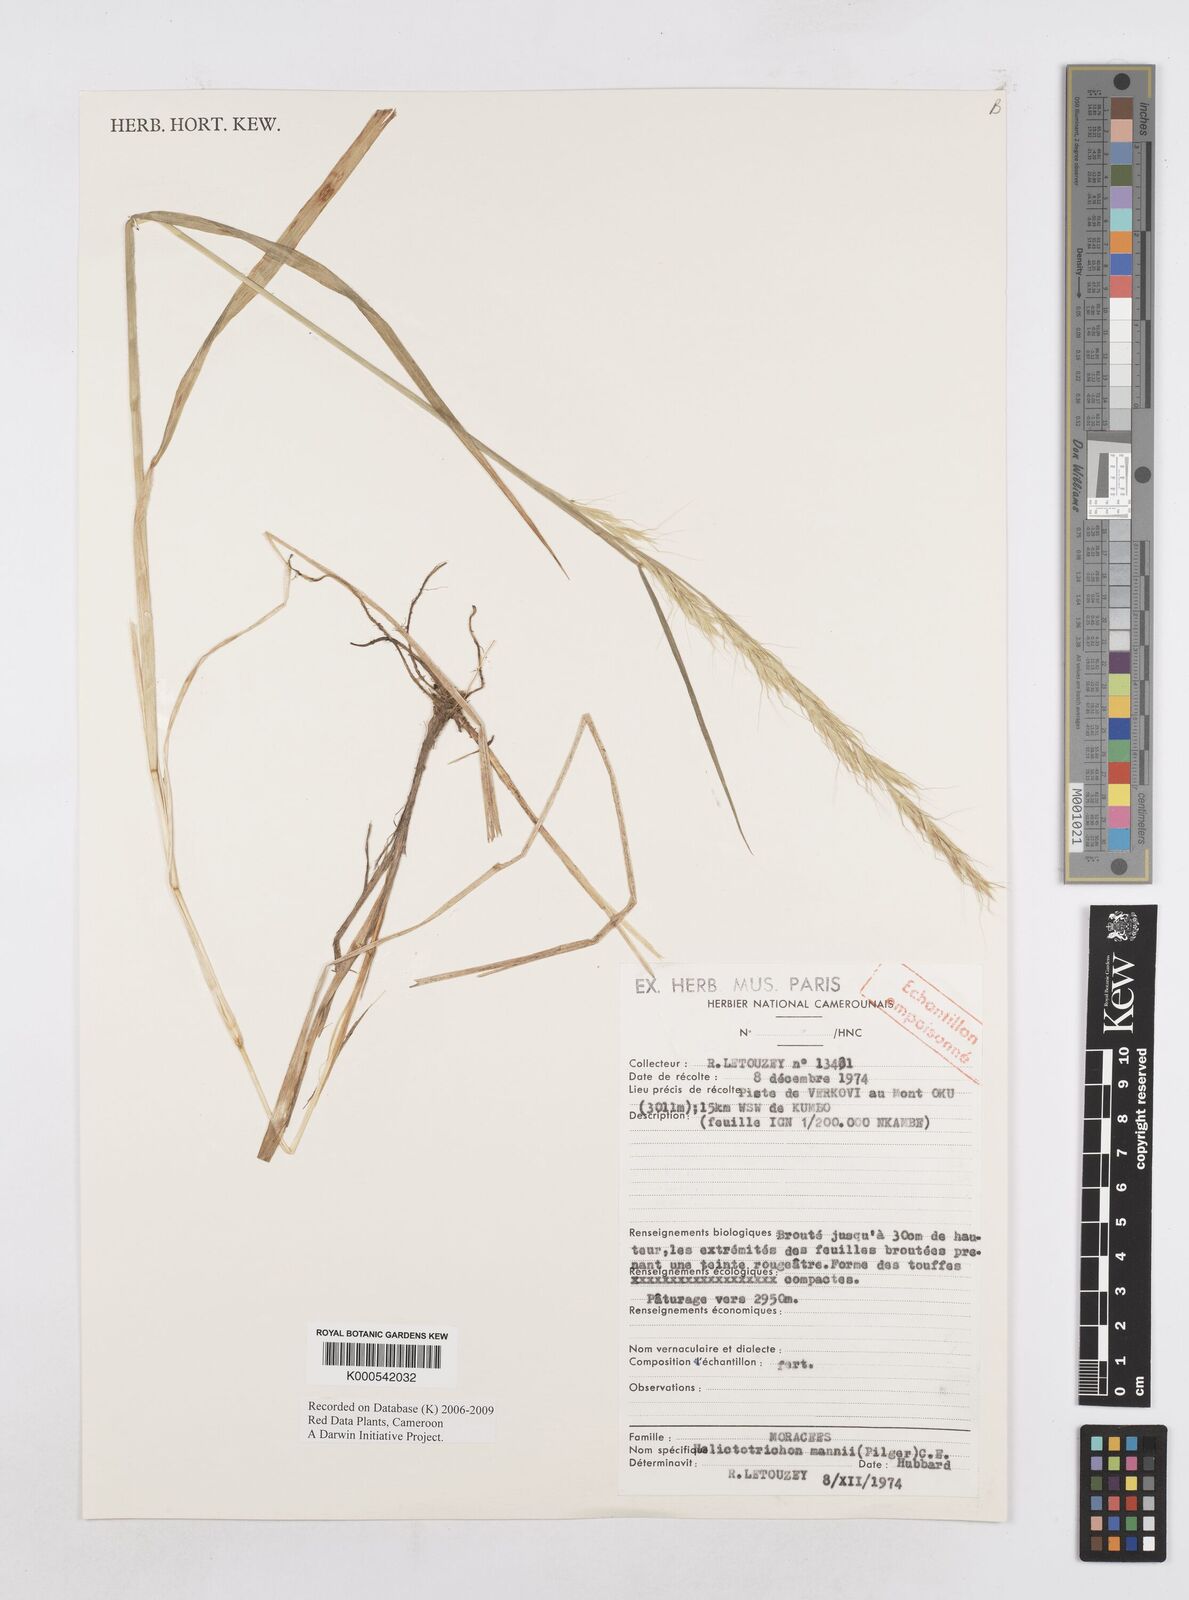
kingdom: Plantae
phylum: Tracheophyta
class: Liliopsida
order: Poales
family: Poaceae
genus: Trisetopsis
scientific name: Trisetopsis mannii
